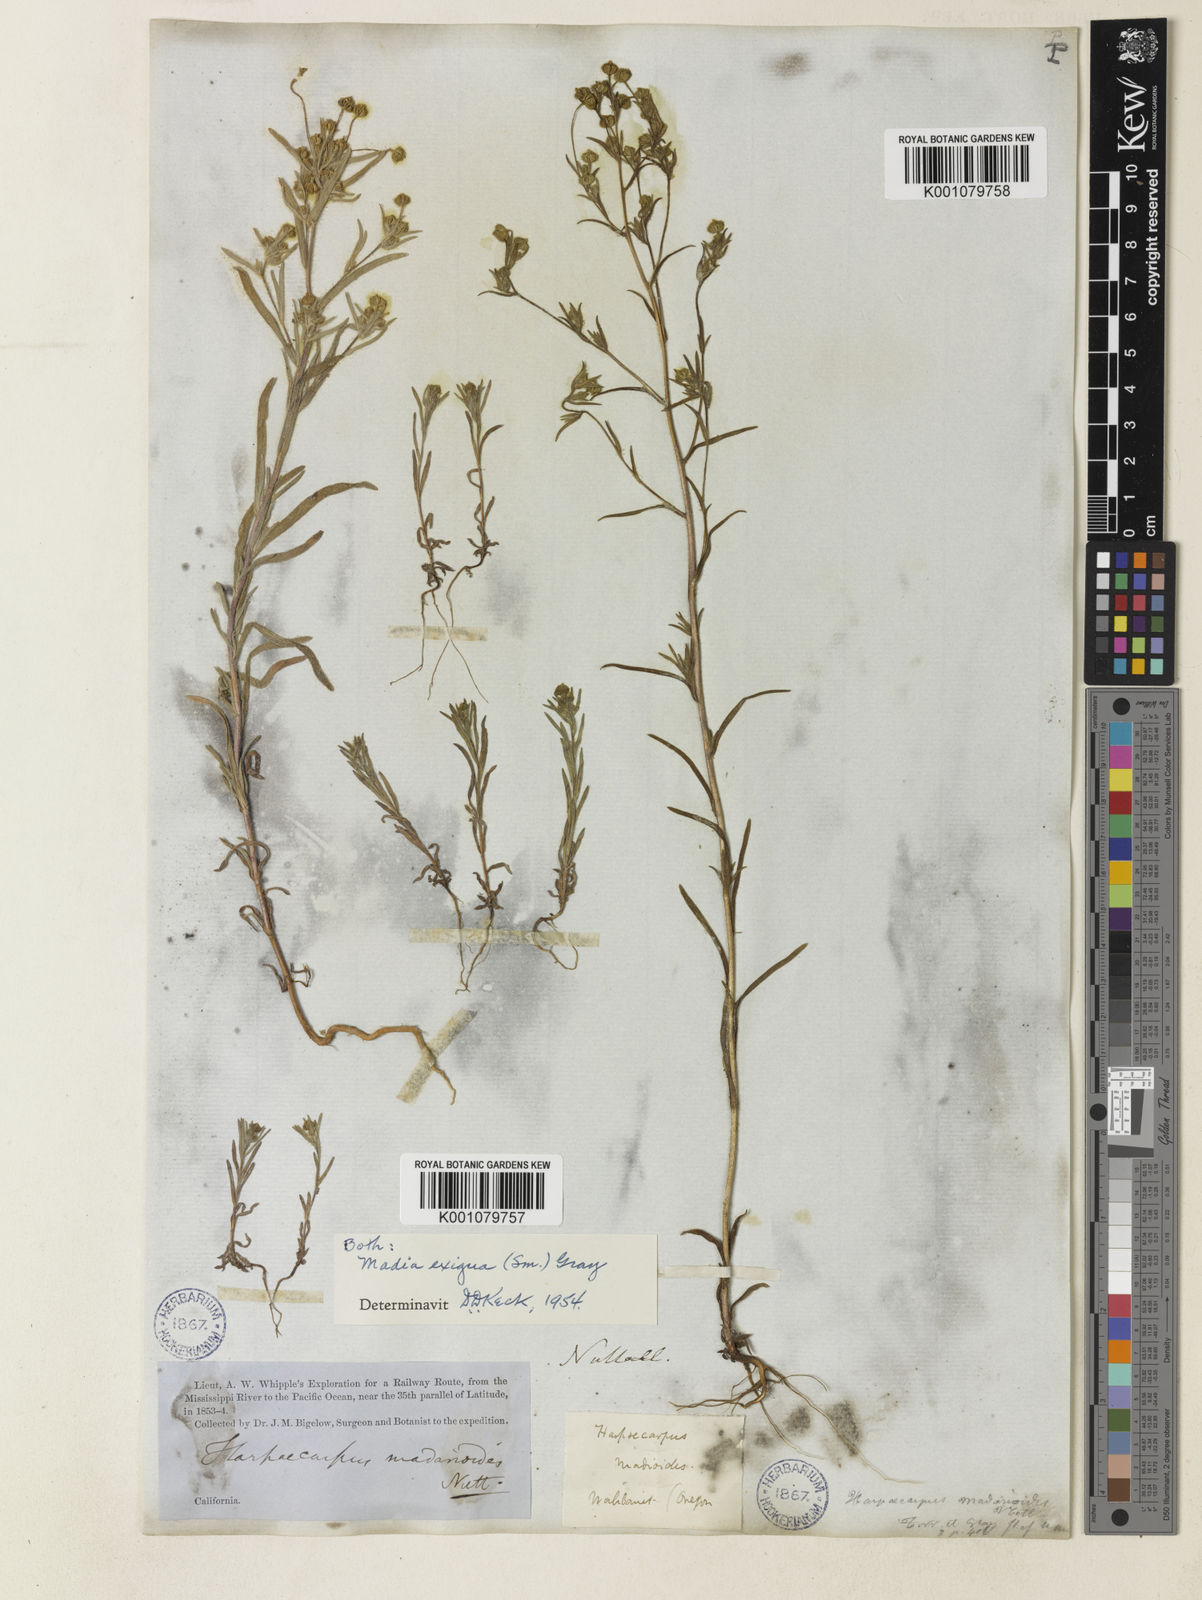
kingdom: Plantae
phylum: Tracheophyta
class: Magnoliopsida
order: Asterales
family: Asteraceae
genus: Madia
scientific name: Madia
